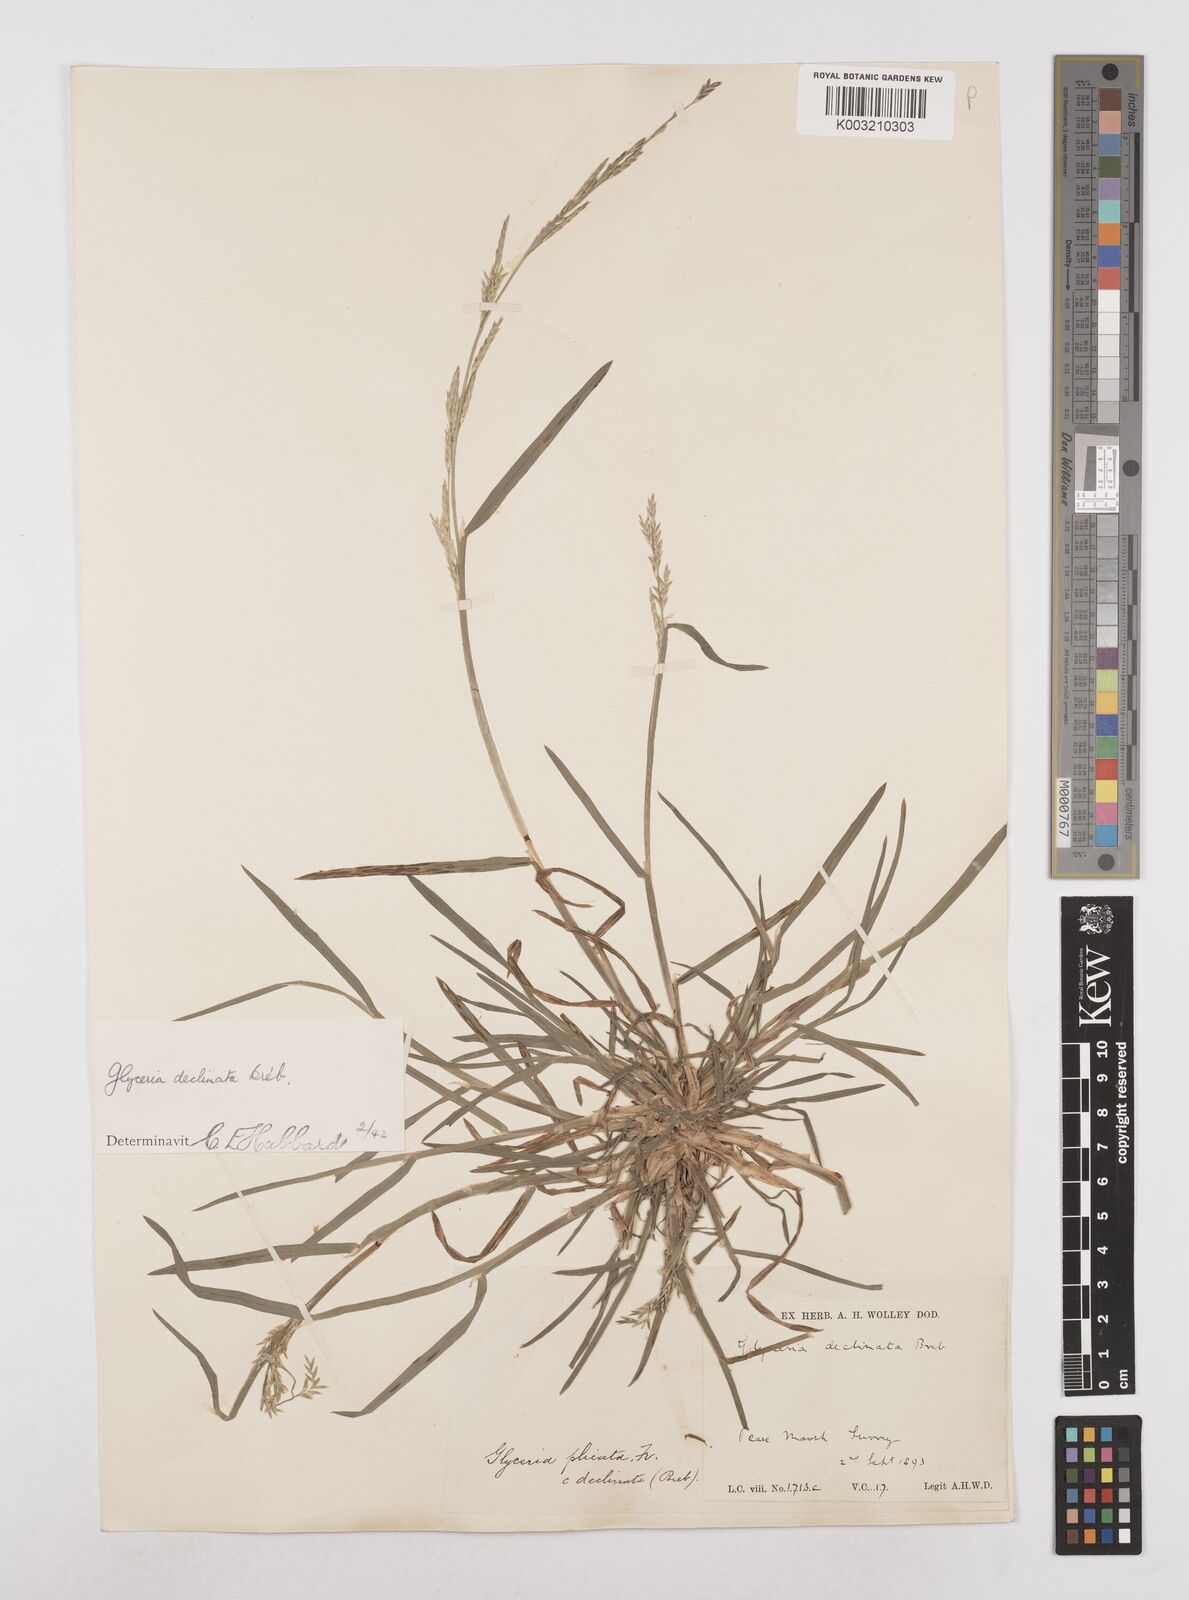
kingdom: Plantae
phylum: Tracheophyta
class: Liliopsida
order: Poales
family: Poaceae
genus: Glyceria
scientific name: Glyceria declinata
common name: Small sweet-grass
